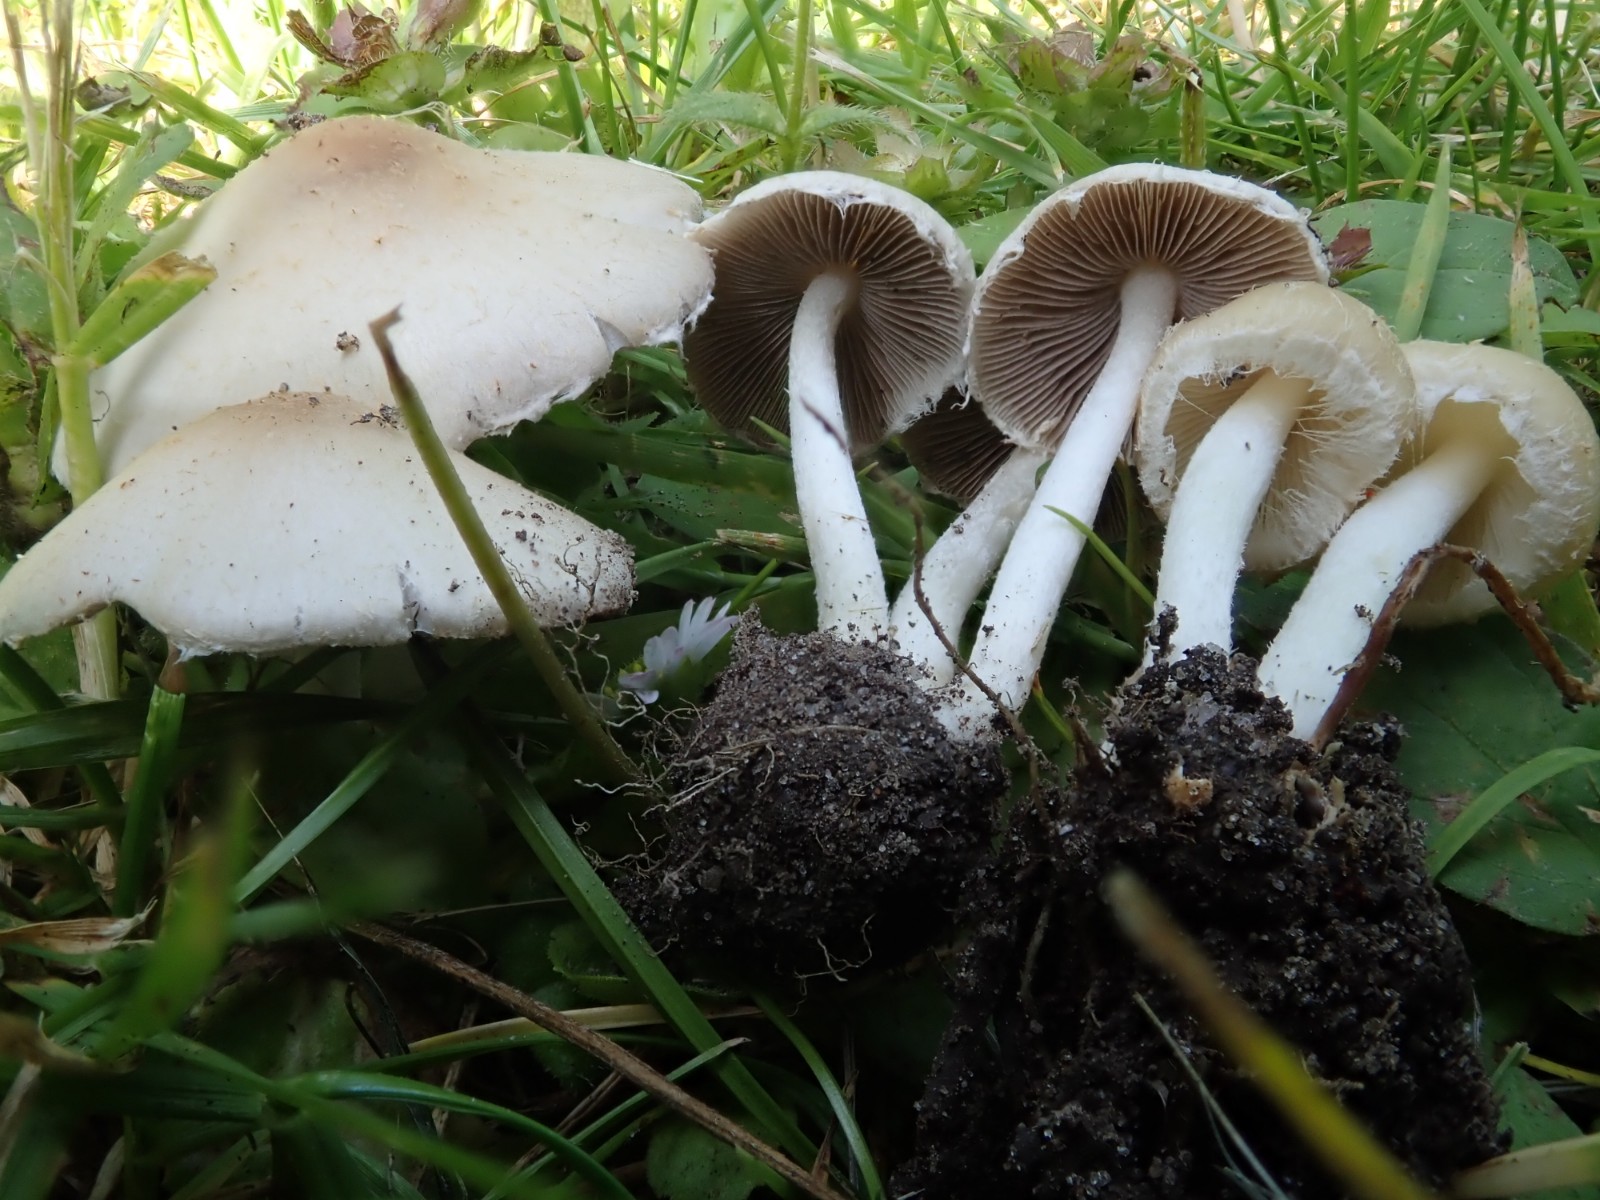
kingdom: Fungi
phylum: Basidiomycota
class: Agaricomycetes
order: Agaricales
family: Psathyrellaceae
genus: Candolleomyces
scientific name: Candolleomyces candolleanus
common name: Candolles mørkhat
